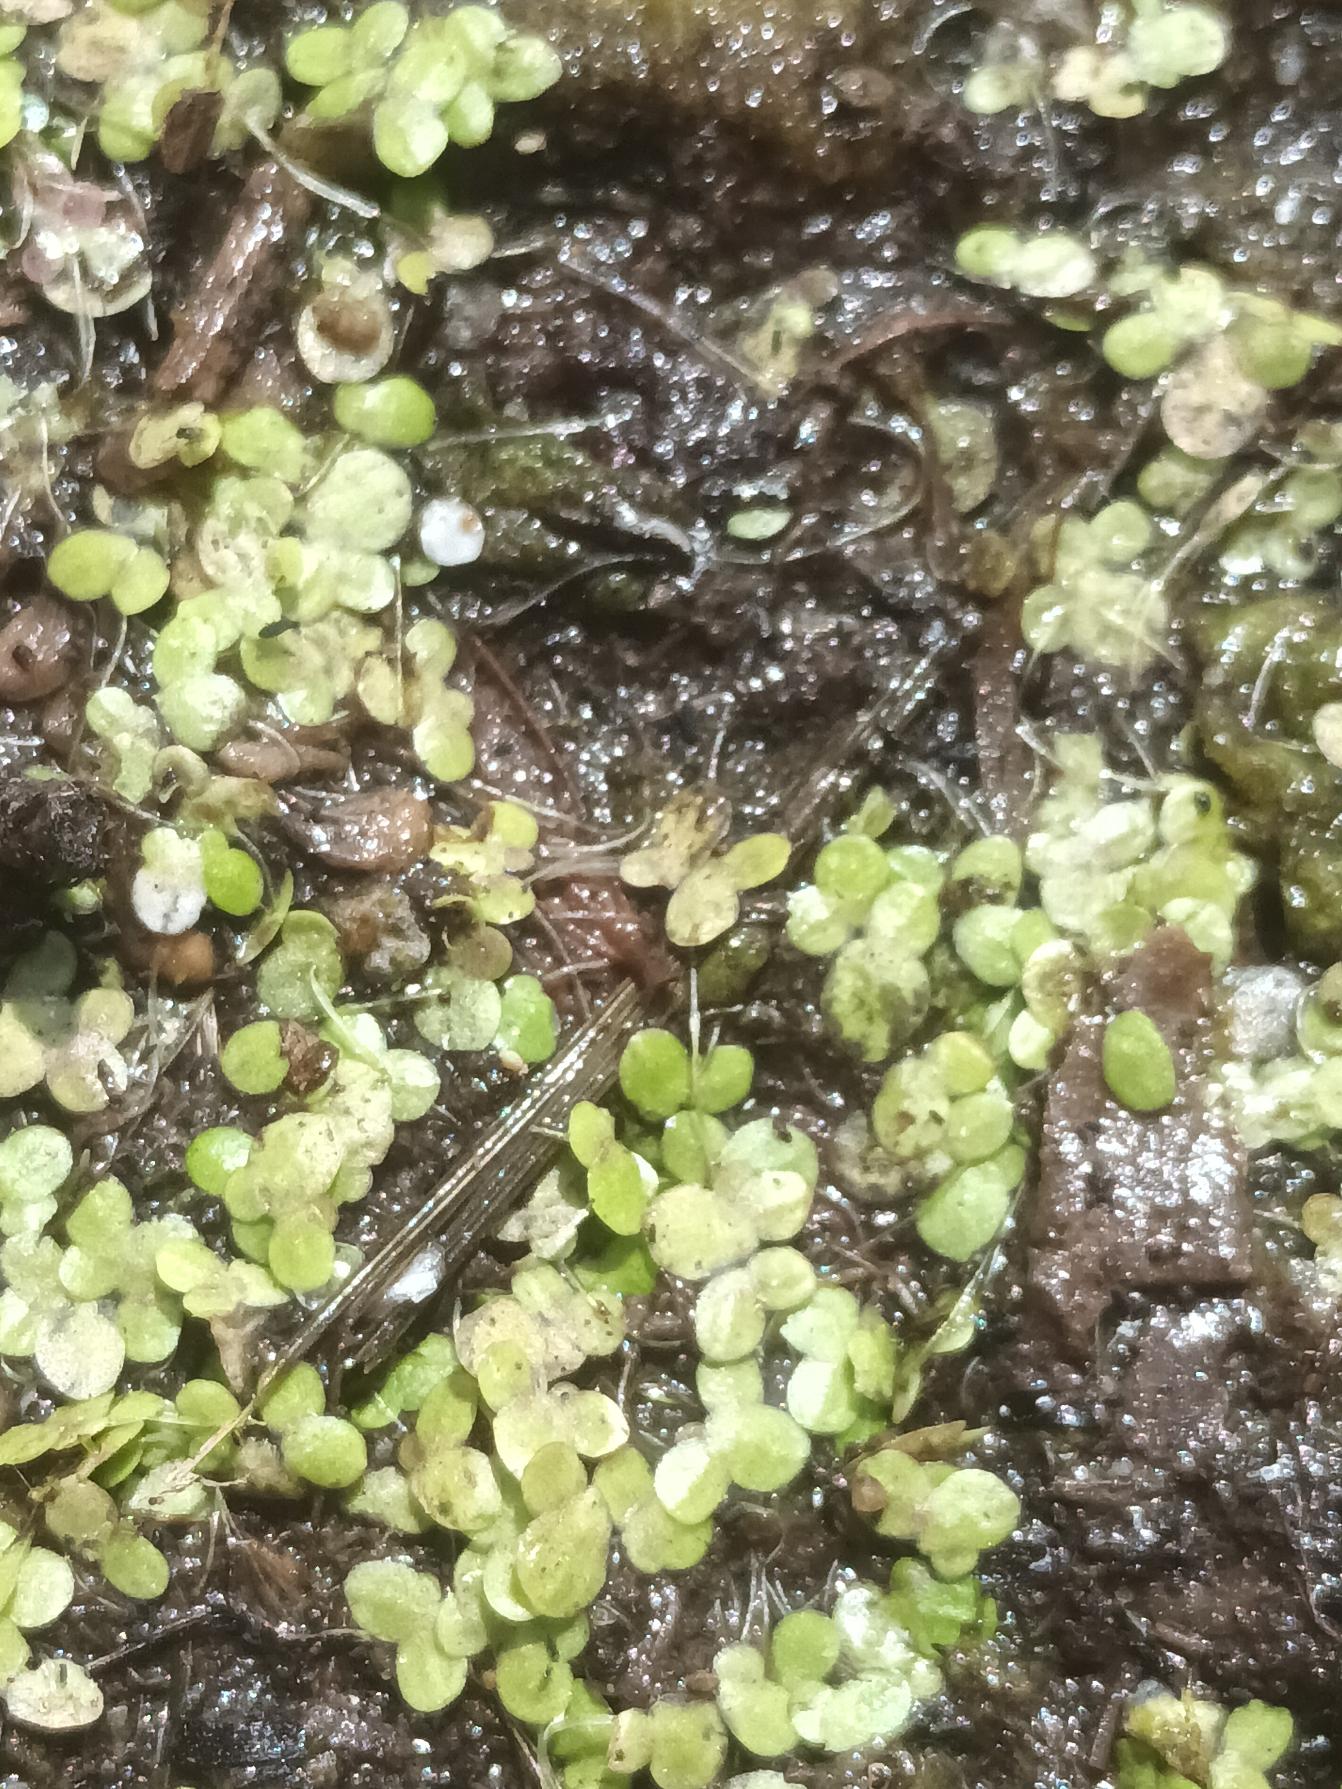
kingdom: Plantae
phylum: Tracheophyta
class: Liliopsida
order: Alismatales
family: Araceae
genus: Lemna
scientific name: Lemna minor
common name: Liden andemad
